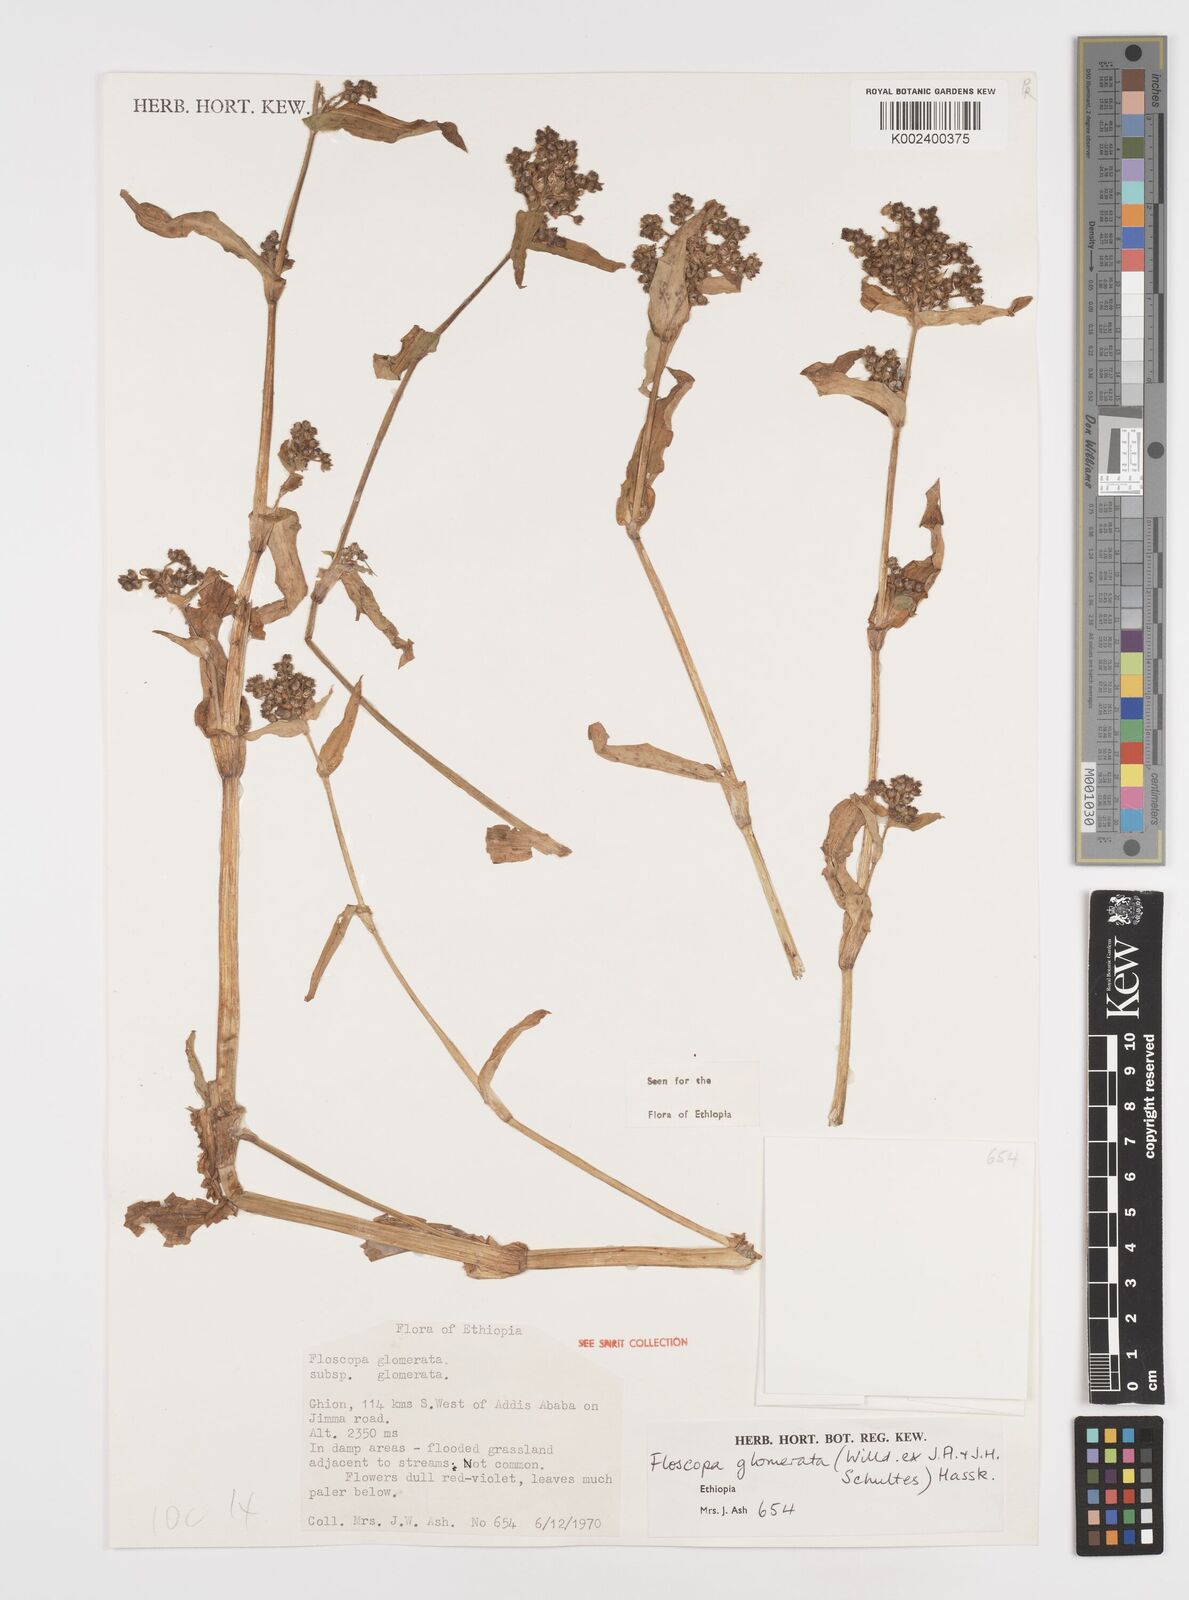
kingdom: Plantae
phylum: Tracheophyta
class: Liliopsida
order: Commelinales
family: Commelinaceae
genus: Floscopa
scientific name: Floscopa glomerata
